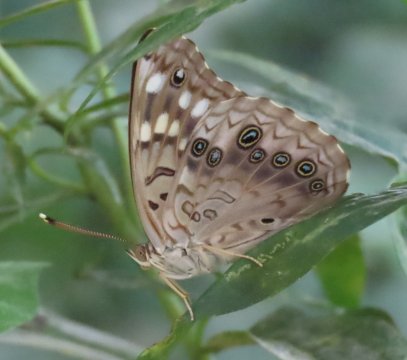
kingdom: Animalia
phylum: Arthropoda
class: Insecta
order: Lepidoptera
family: Nymphalidae
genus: Asterocampa
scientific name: Asterocampa celtis
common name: Hackberry Emperor
